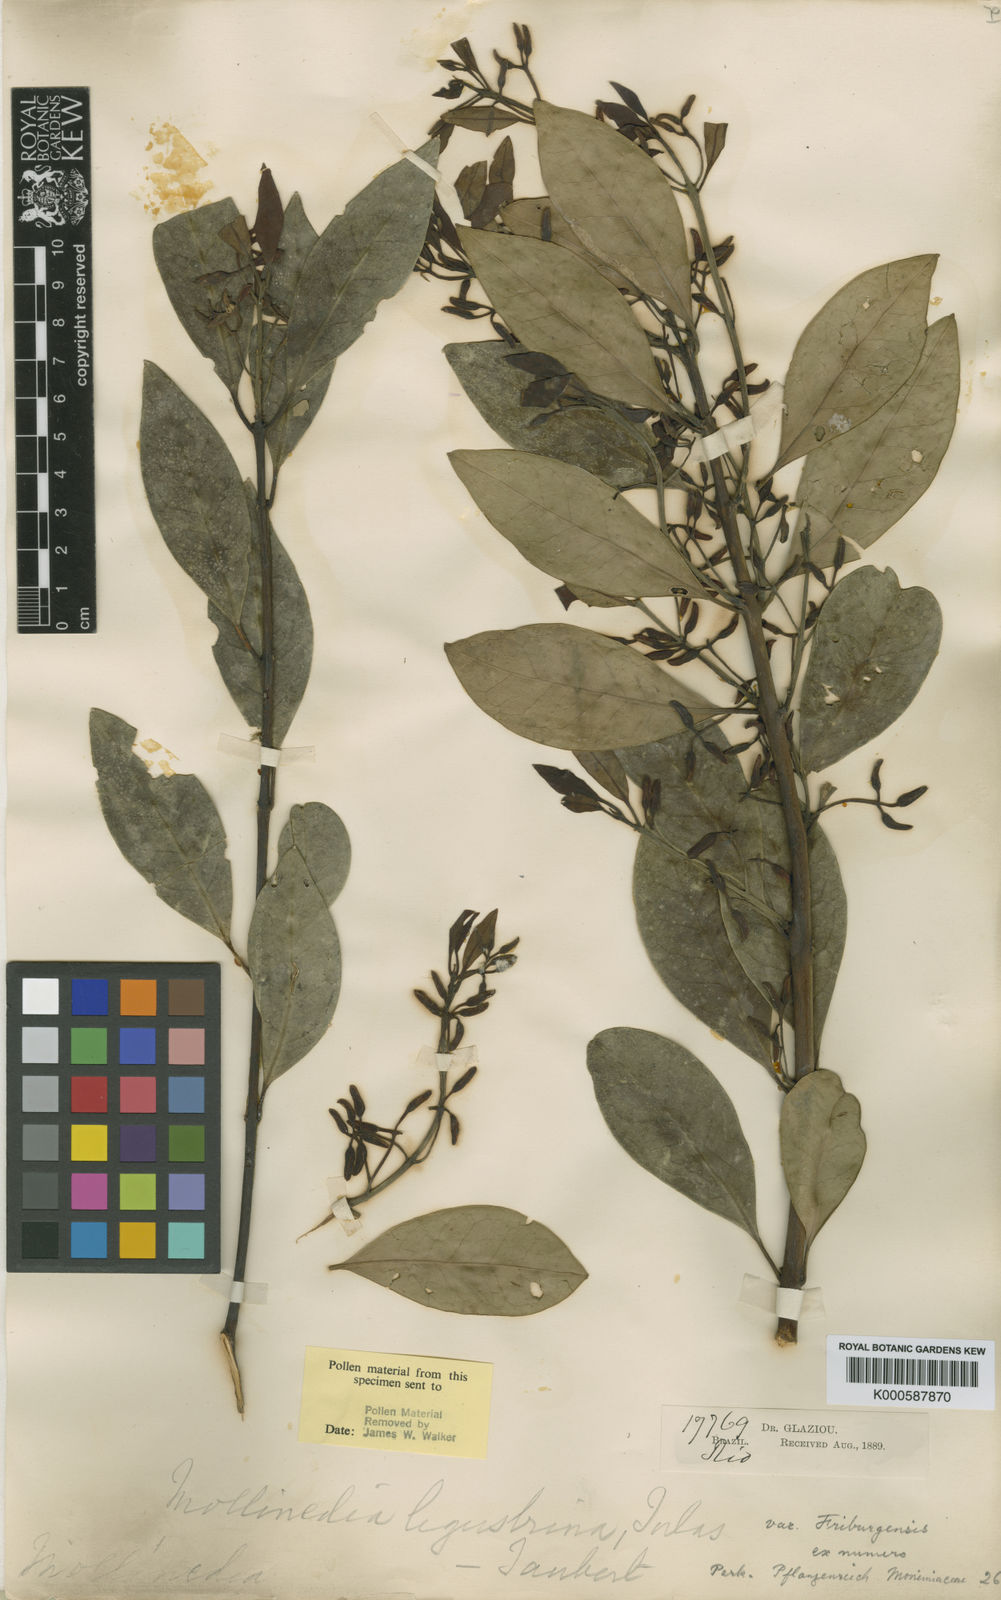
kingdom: Plantae
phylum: Tracheophyta
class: Magnoliopsida
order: Laurales
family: Monimiaceae
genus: Macropeplus
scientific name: Macropeplus ligustrinus
